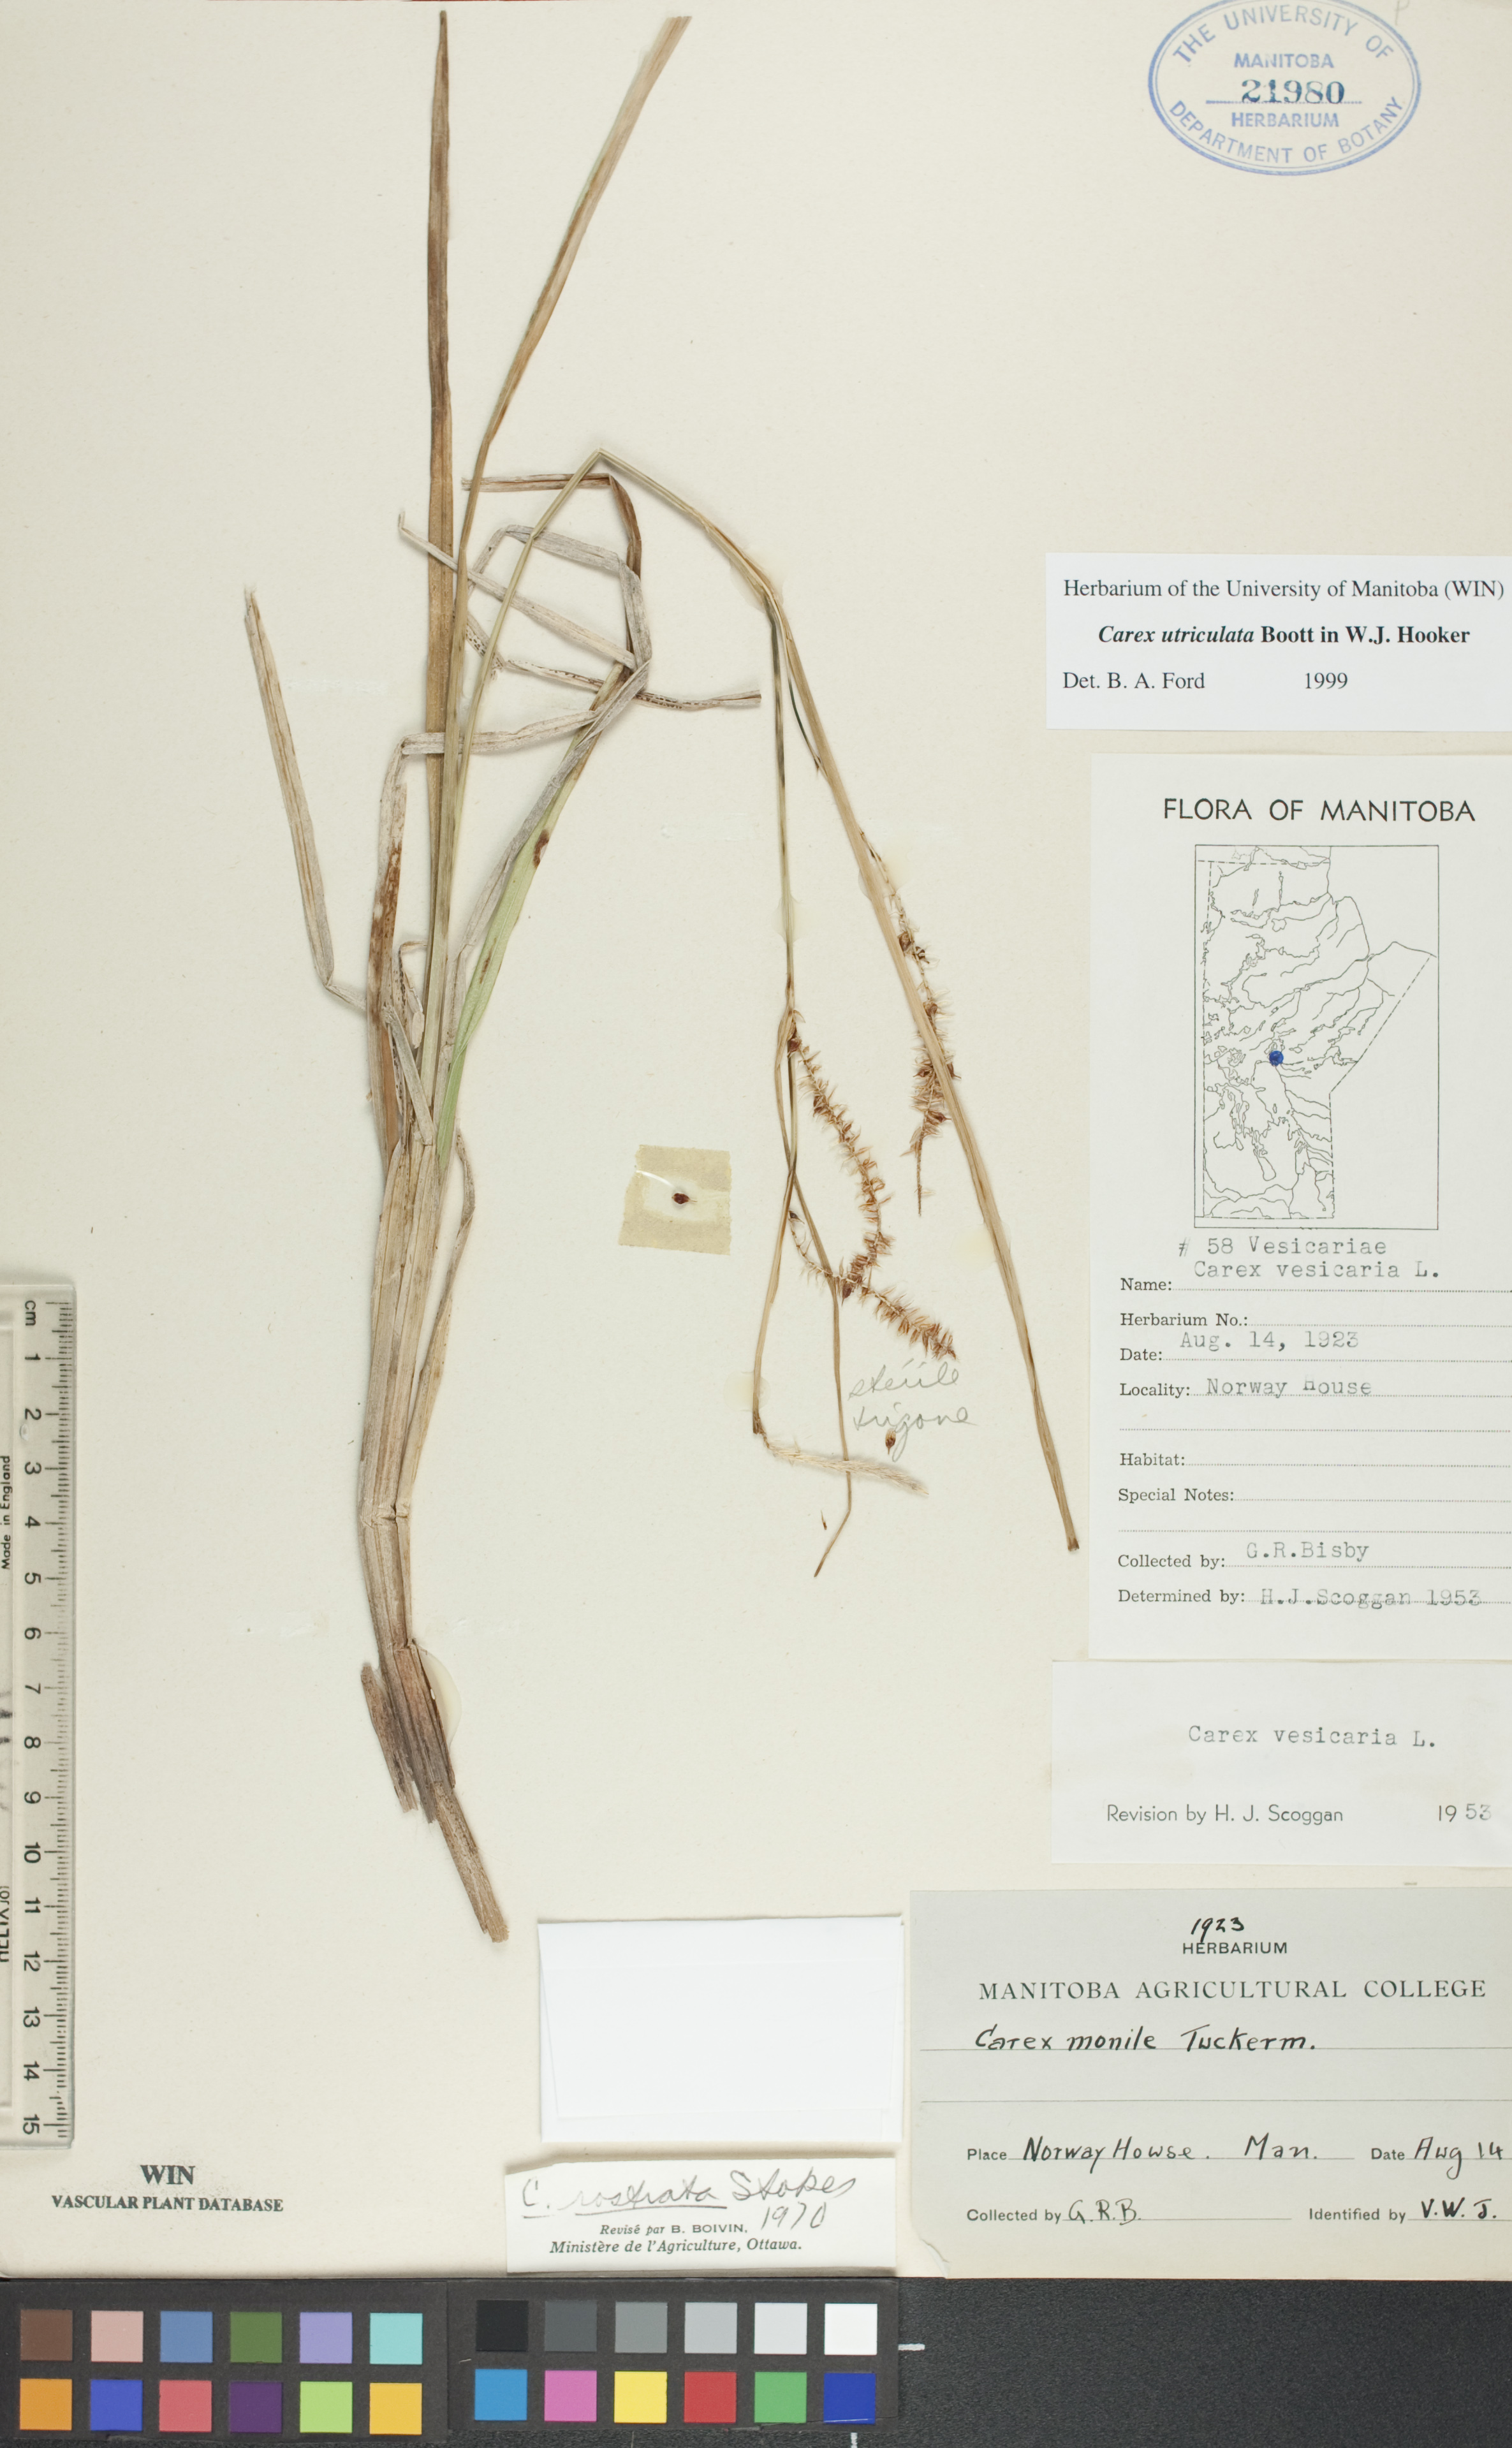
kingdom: Plantae
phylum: Tracheophyta
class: Liliopsida
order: Poales
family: Cyperaceae
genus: Carex
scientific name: Carex utriculata
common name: Beaked sedge
